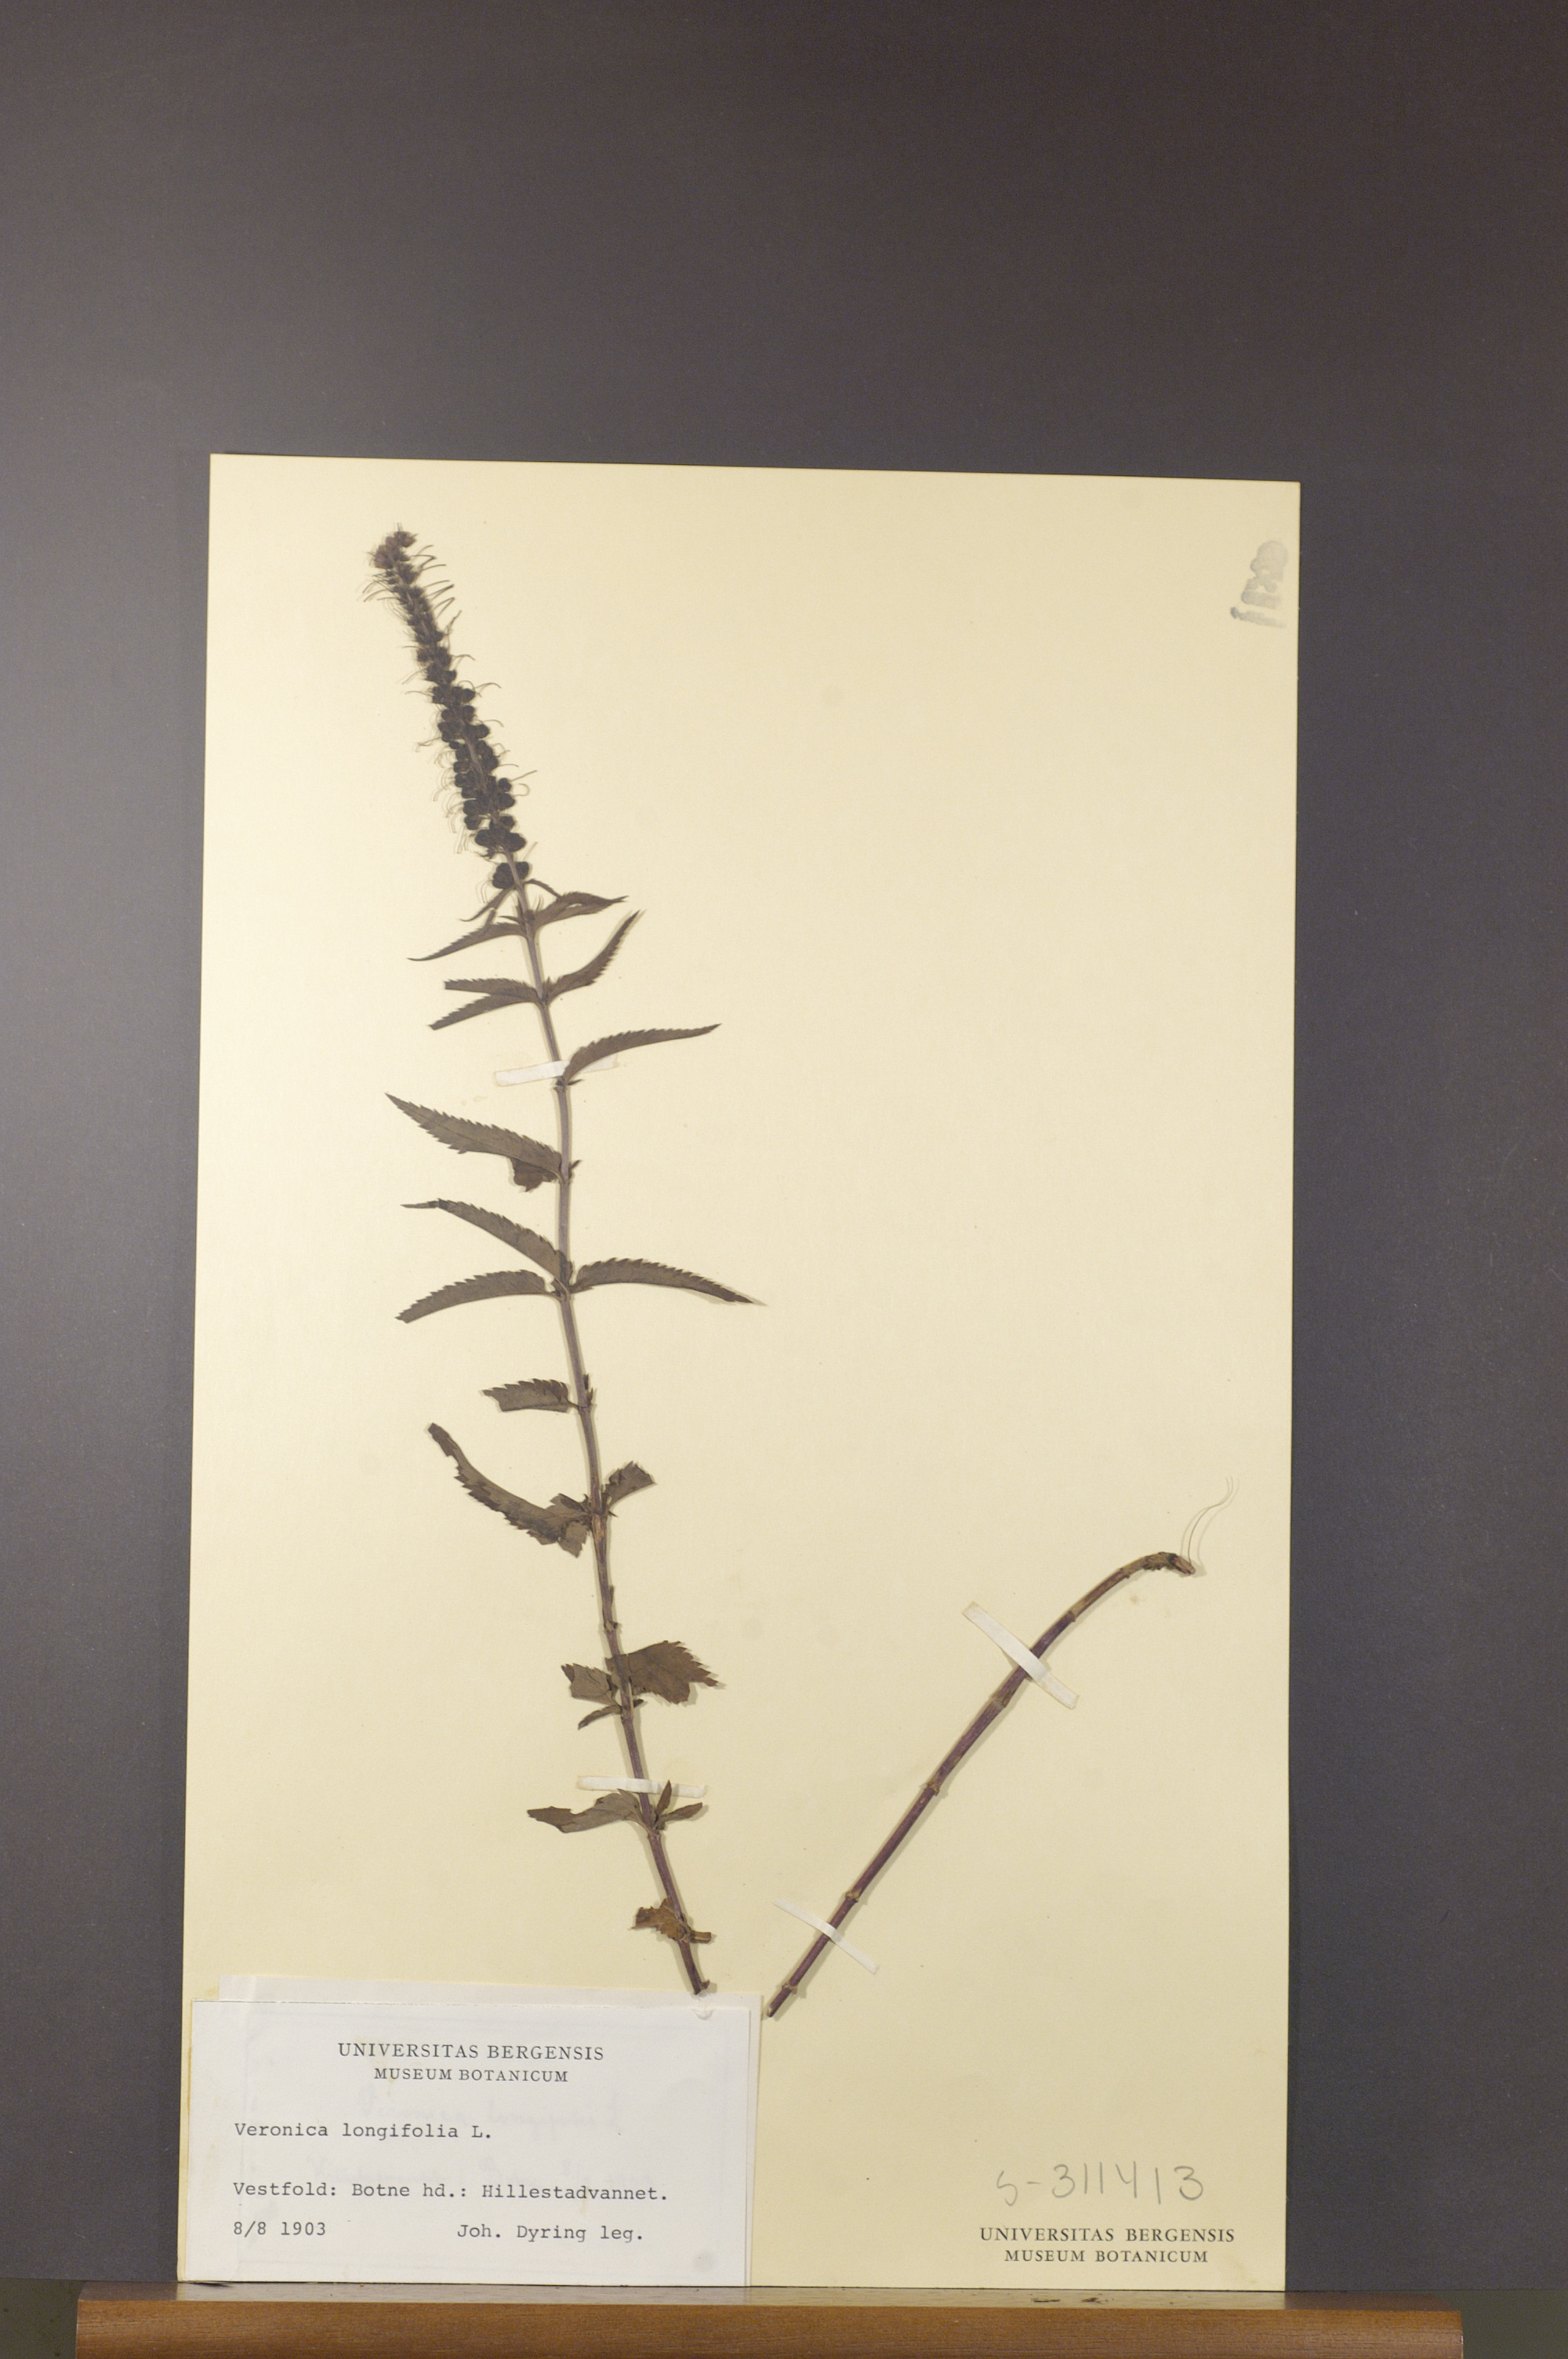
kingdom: Plantae
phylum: Tracheophyta
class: Magnoliopsida
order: Lamiales
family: Plantaginaceae
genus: Veronica
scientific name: Veronica longifolia
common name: Garden speedwell
